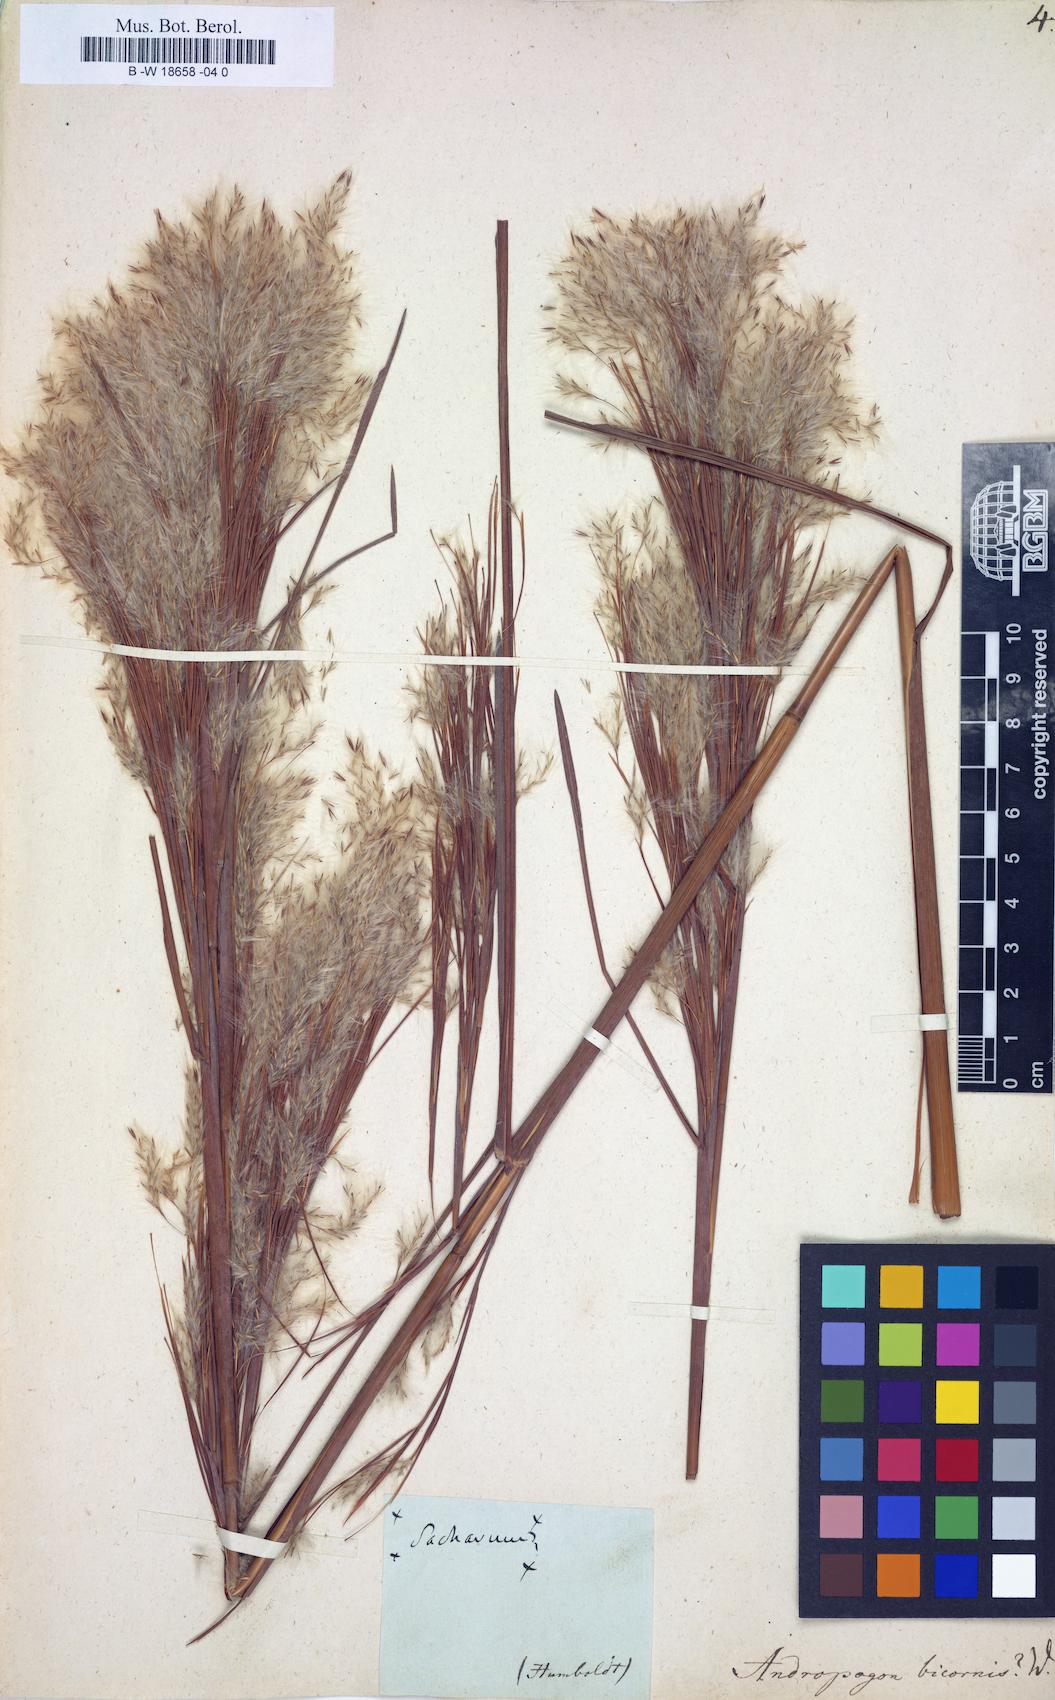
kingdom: Plantae
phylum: Tracheophyta
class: Liliopsida
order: Poales
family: Poaceae
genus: Andropogon
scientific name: Andropogon bicornis
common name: West indian foxtail grass
